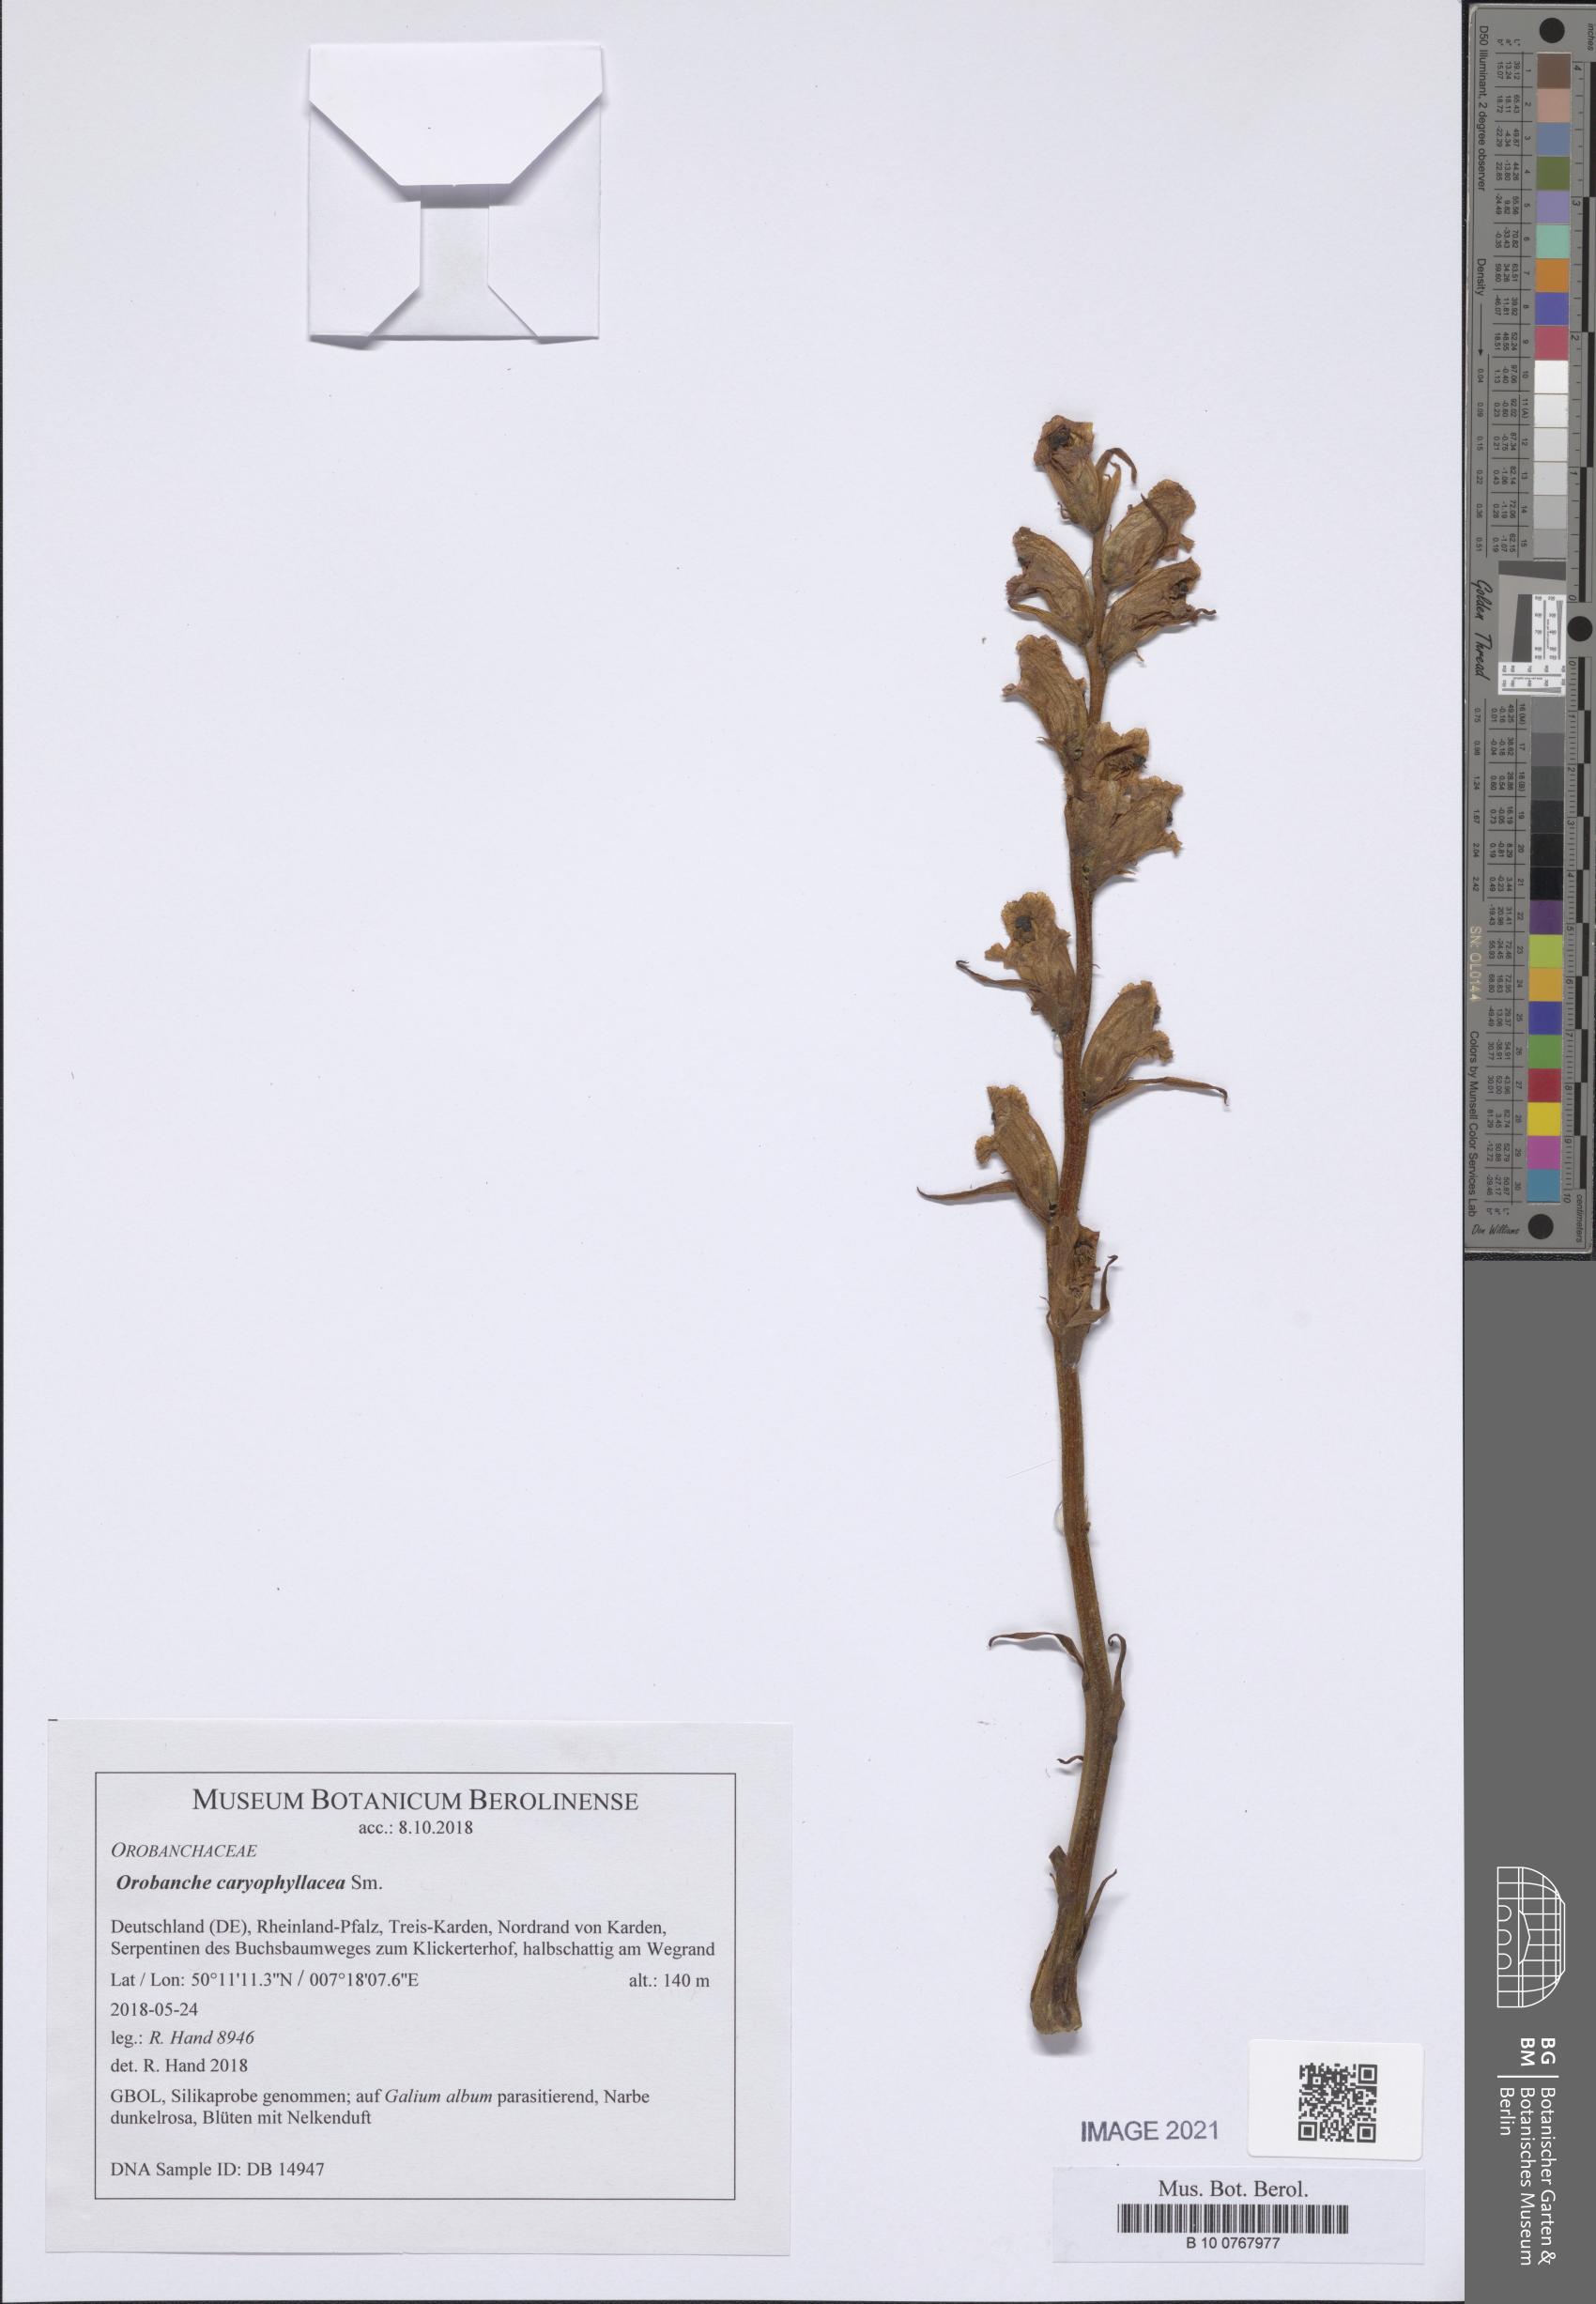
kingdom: Plantae
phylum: Tracheophyta
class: Magnoliopsida
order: Lamiales
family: Orobanchaceae
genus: Orobanche
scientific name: Orobanche caryophyllacea
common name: Bedstraw broomrape
